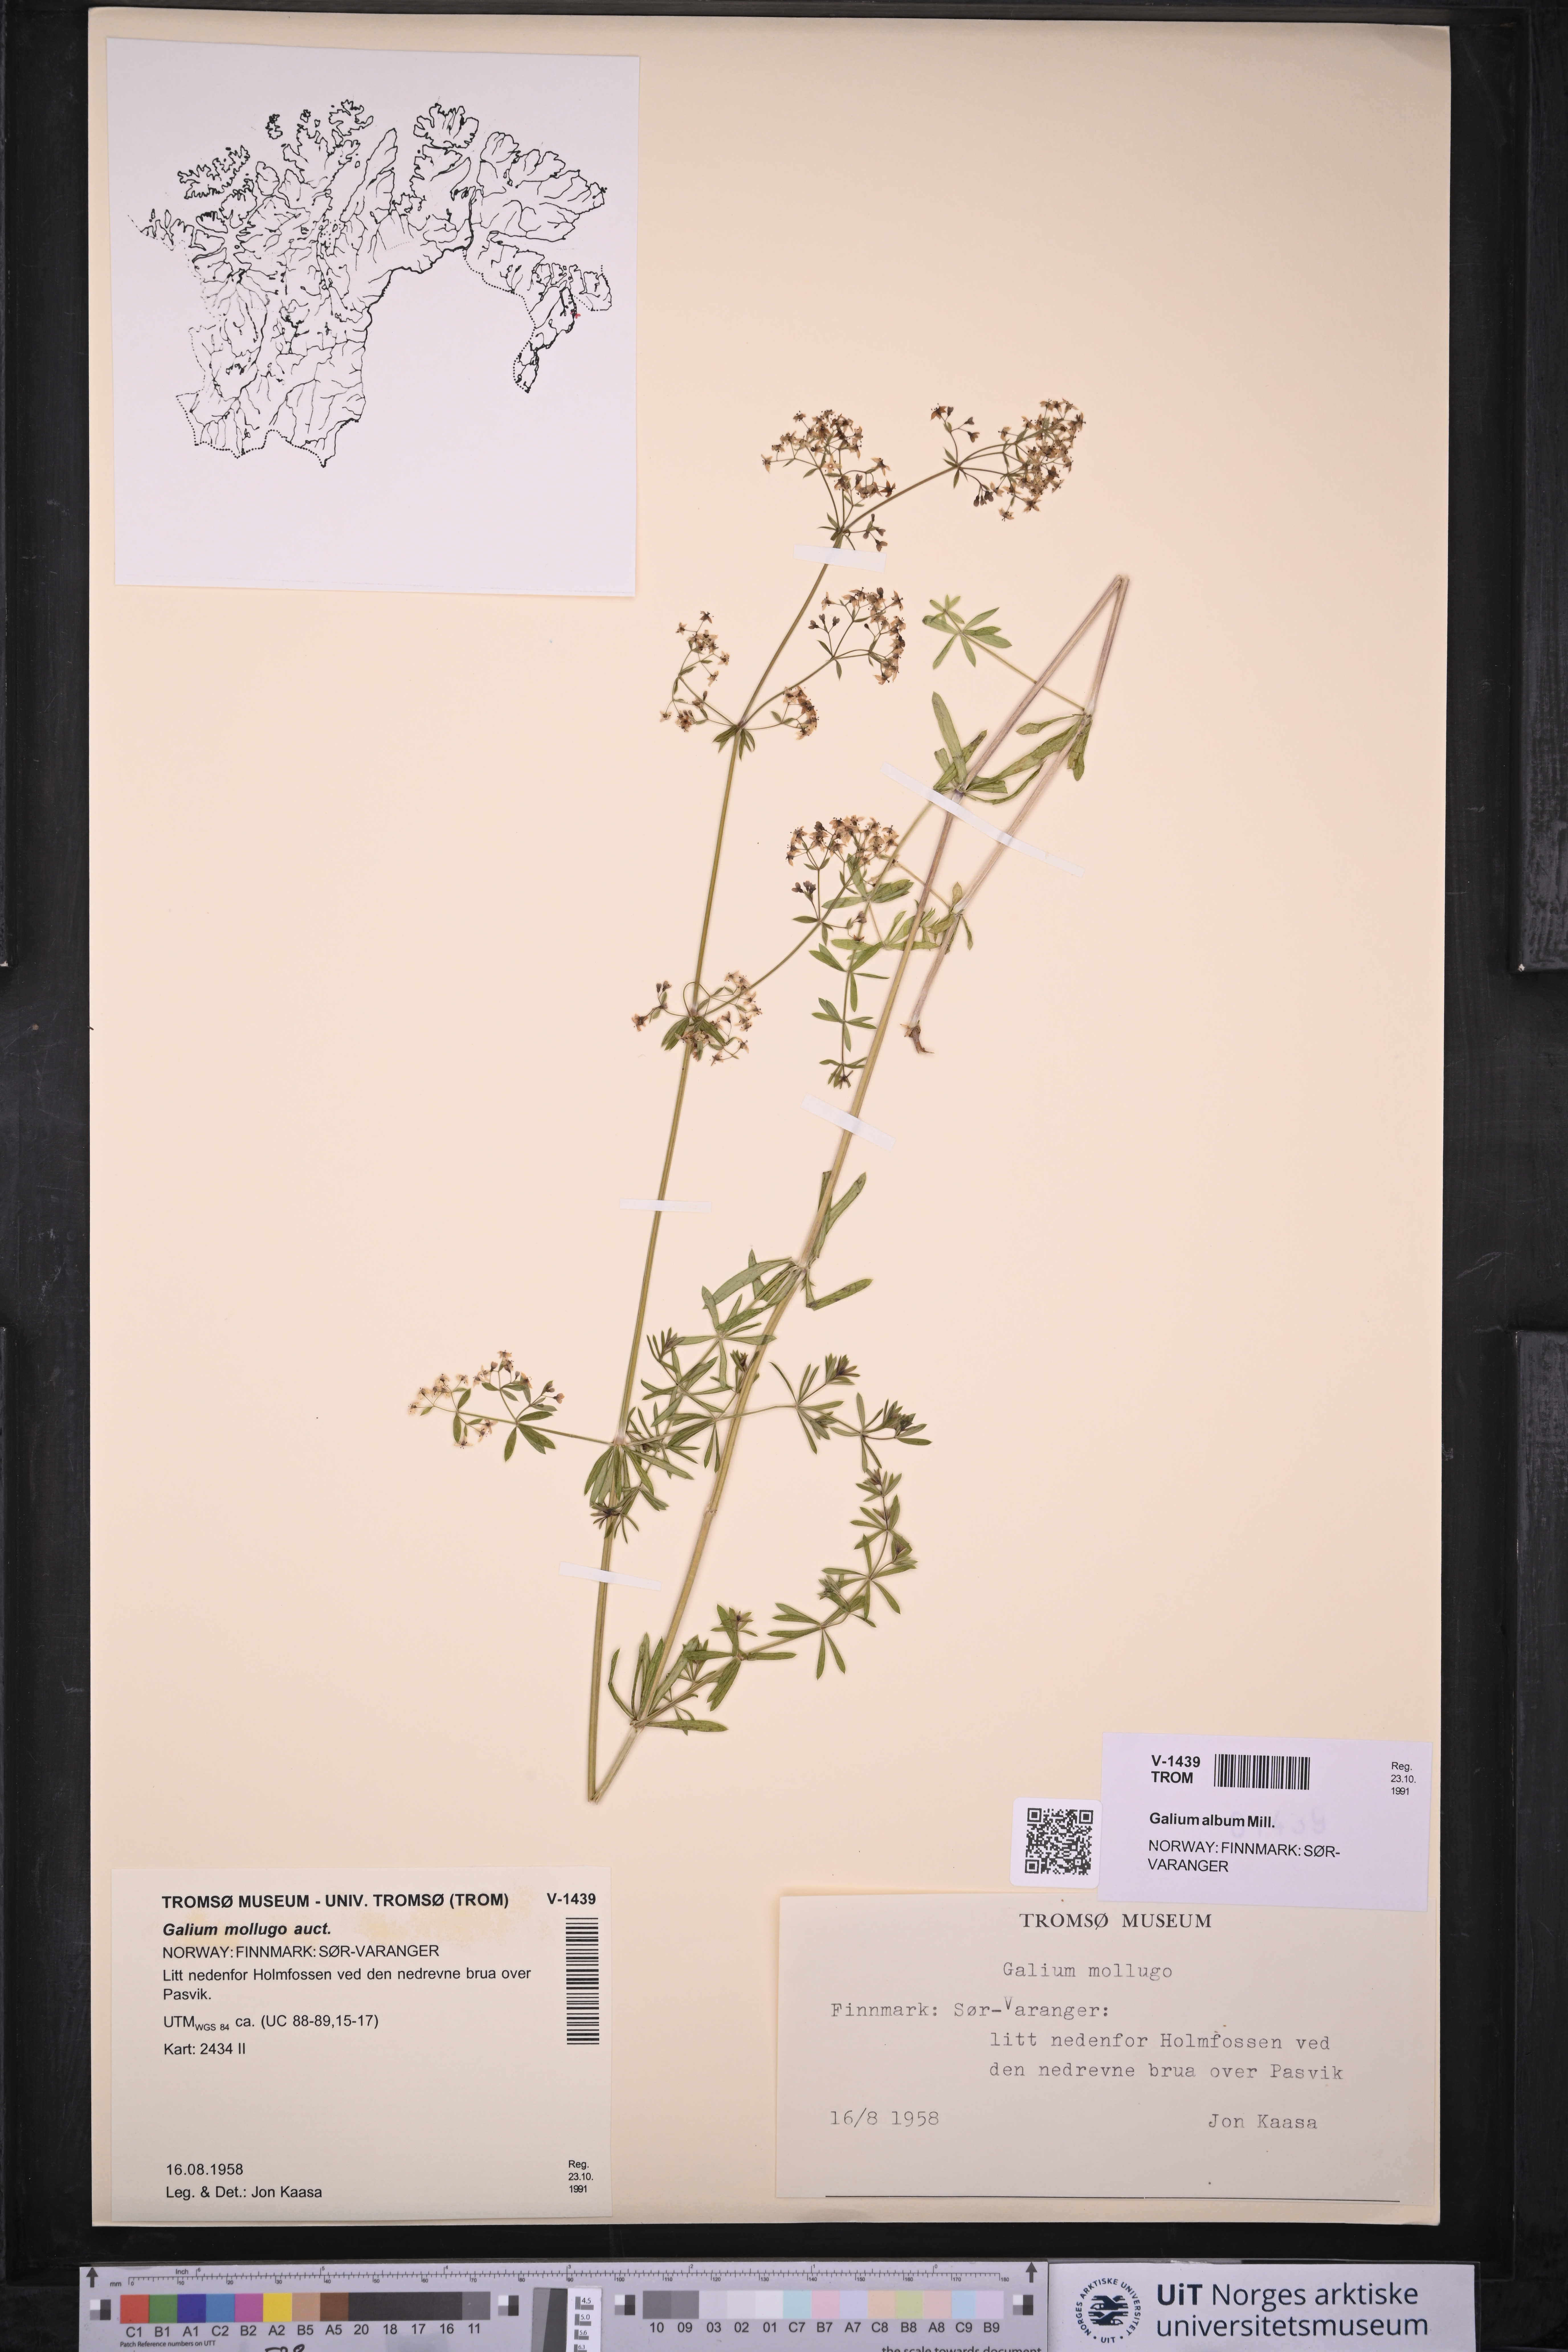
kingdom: Plantae
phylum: Tracheophyta
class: Magnoliopsida
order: Gentianales
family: Rubiaceae
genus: Galium
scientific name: Galium
